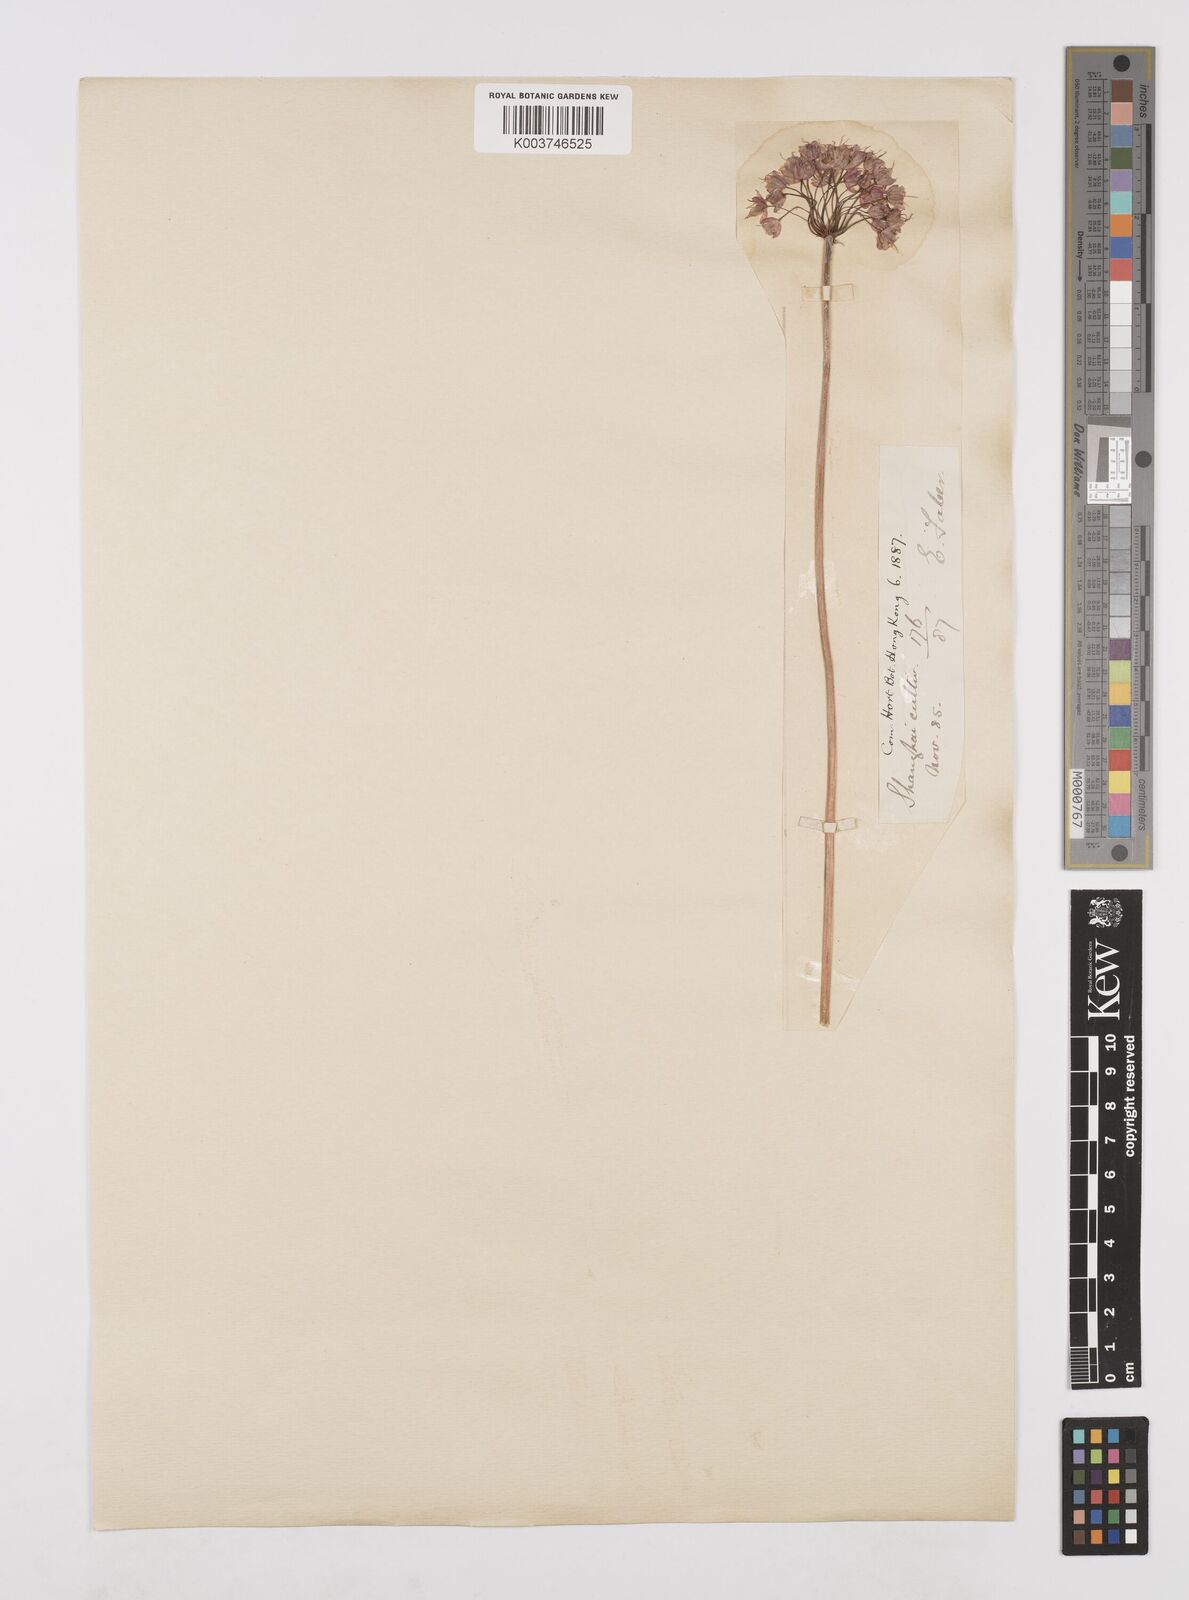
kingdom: Plantae
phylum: Tracheophyta
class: Liliopsida
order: Asparagales
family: Amaryllidaceae
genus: Allium
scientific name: Allium chinense
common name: Japanese scallion
